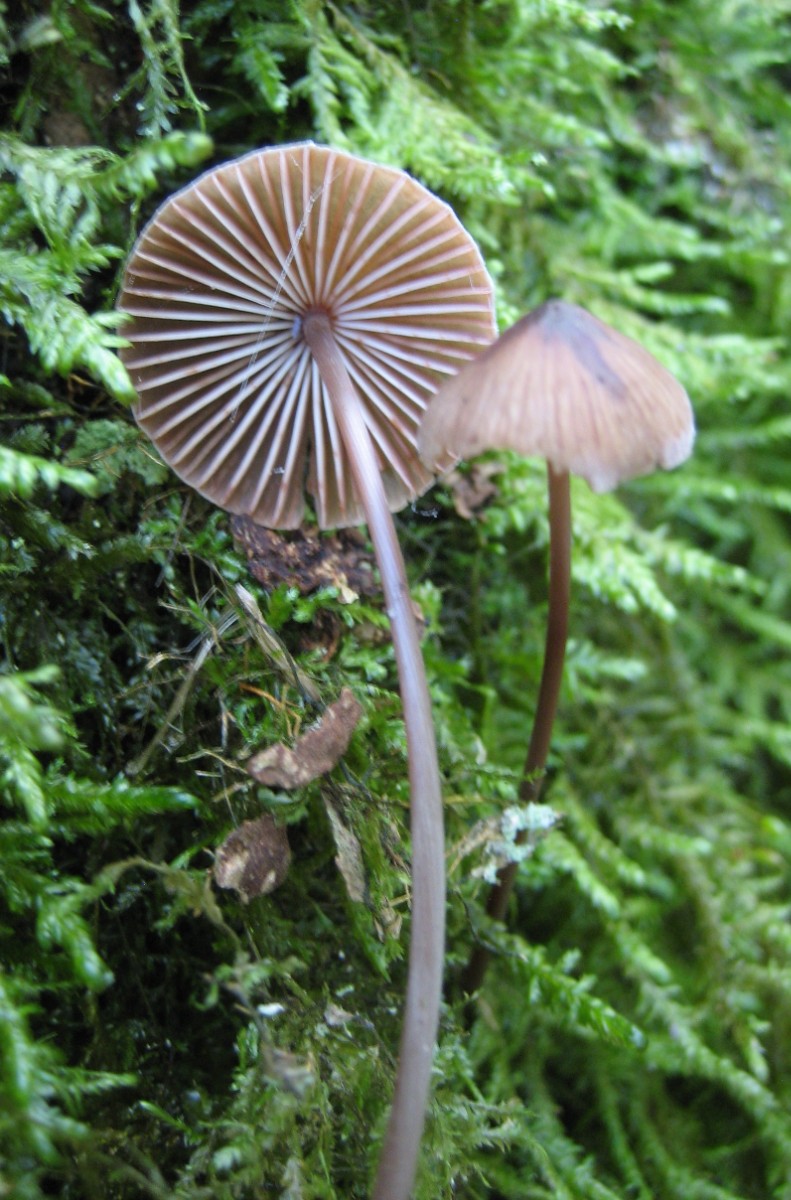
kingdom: Fungi
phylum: Basidiomycota
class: Agaricomycetes
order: Agaricales
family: Mycenaceae
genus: Mycena
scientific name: Mycena
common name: huesvamp
